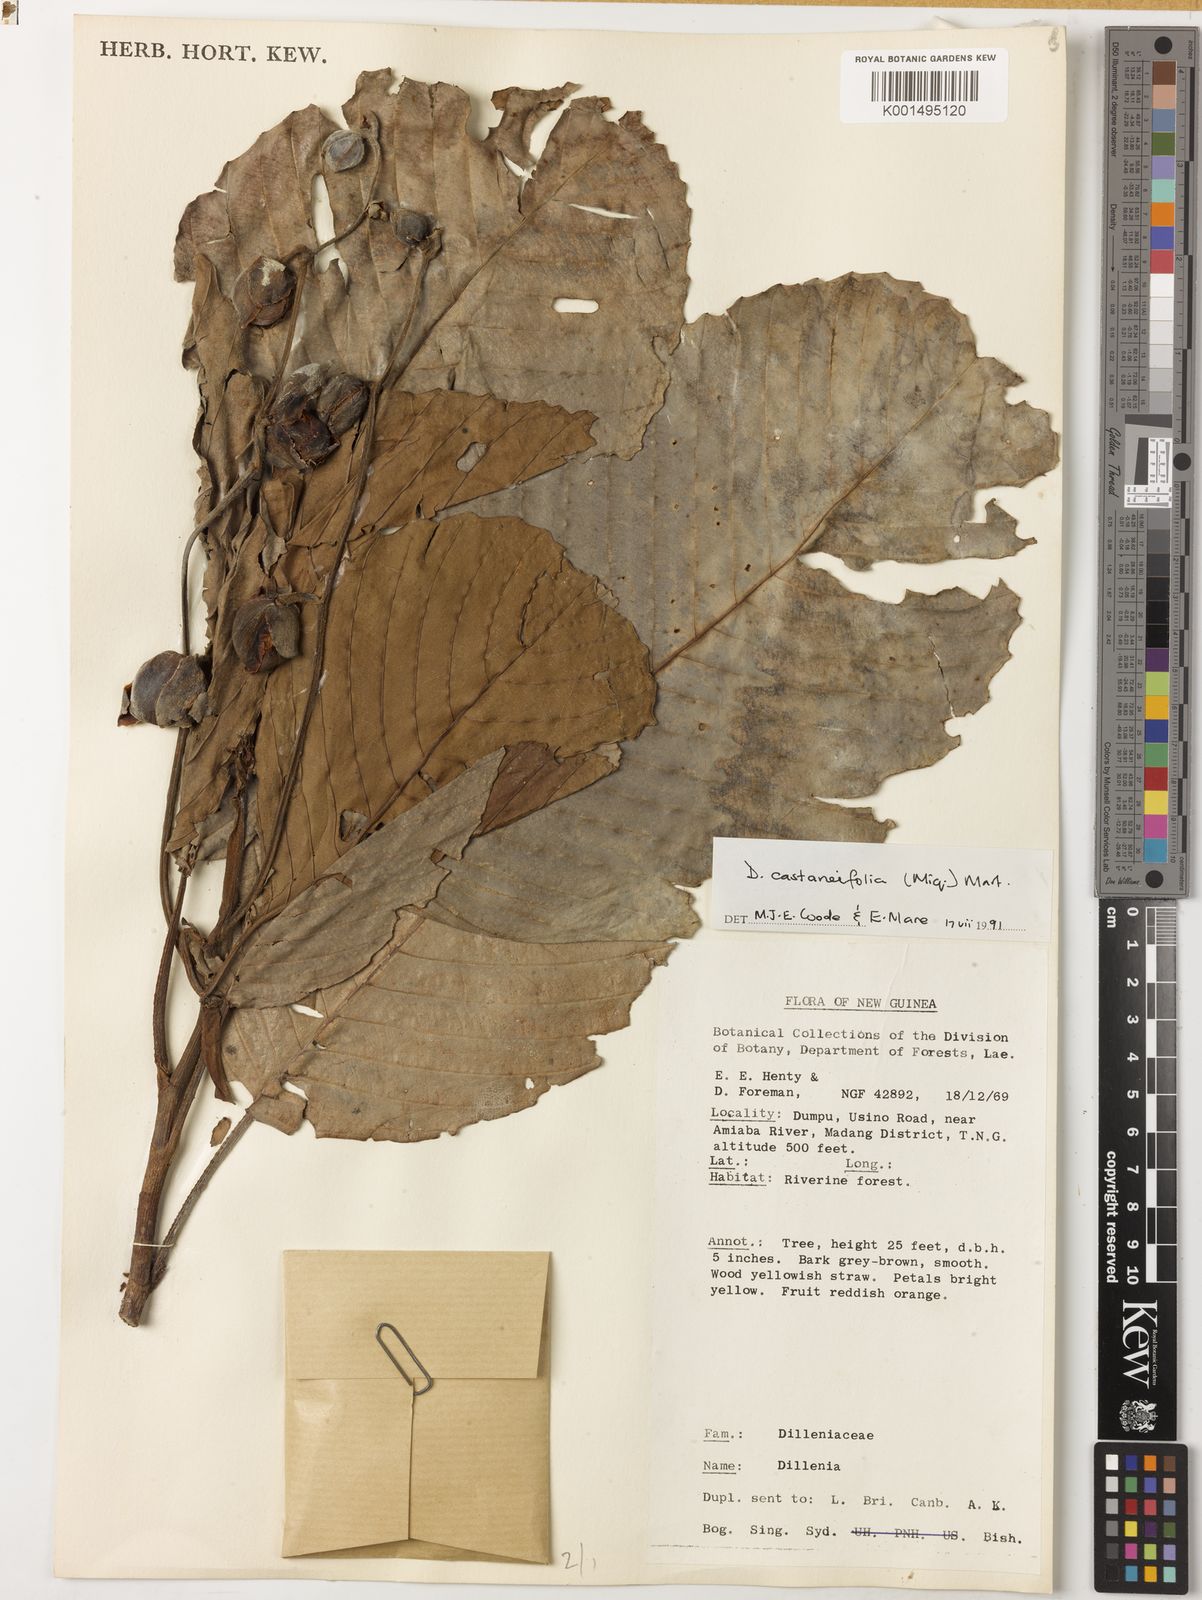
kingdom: Plantae
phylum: Tracheophyta
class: Magnoliopsida
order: Dilleniales
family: Dilleniaceae
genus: Dillenia
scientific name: Dillenia castaneifolia
